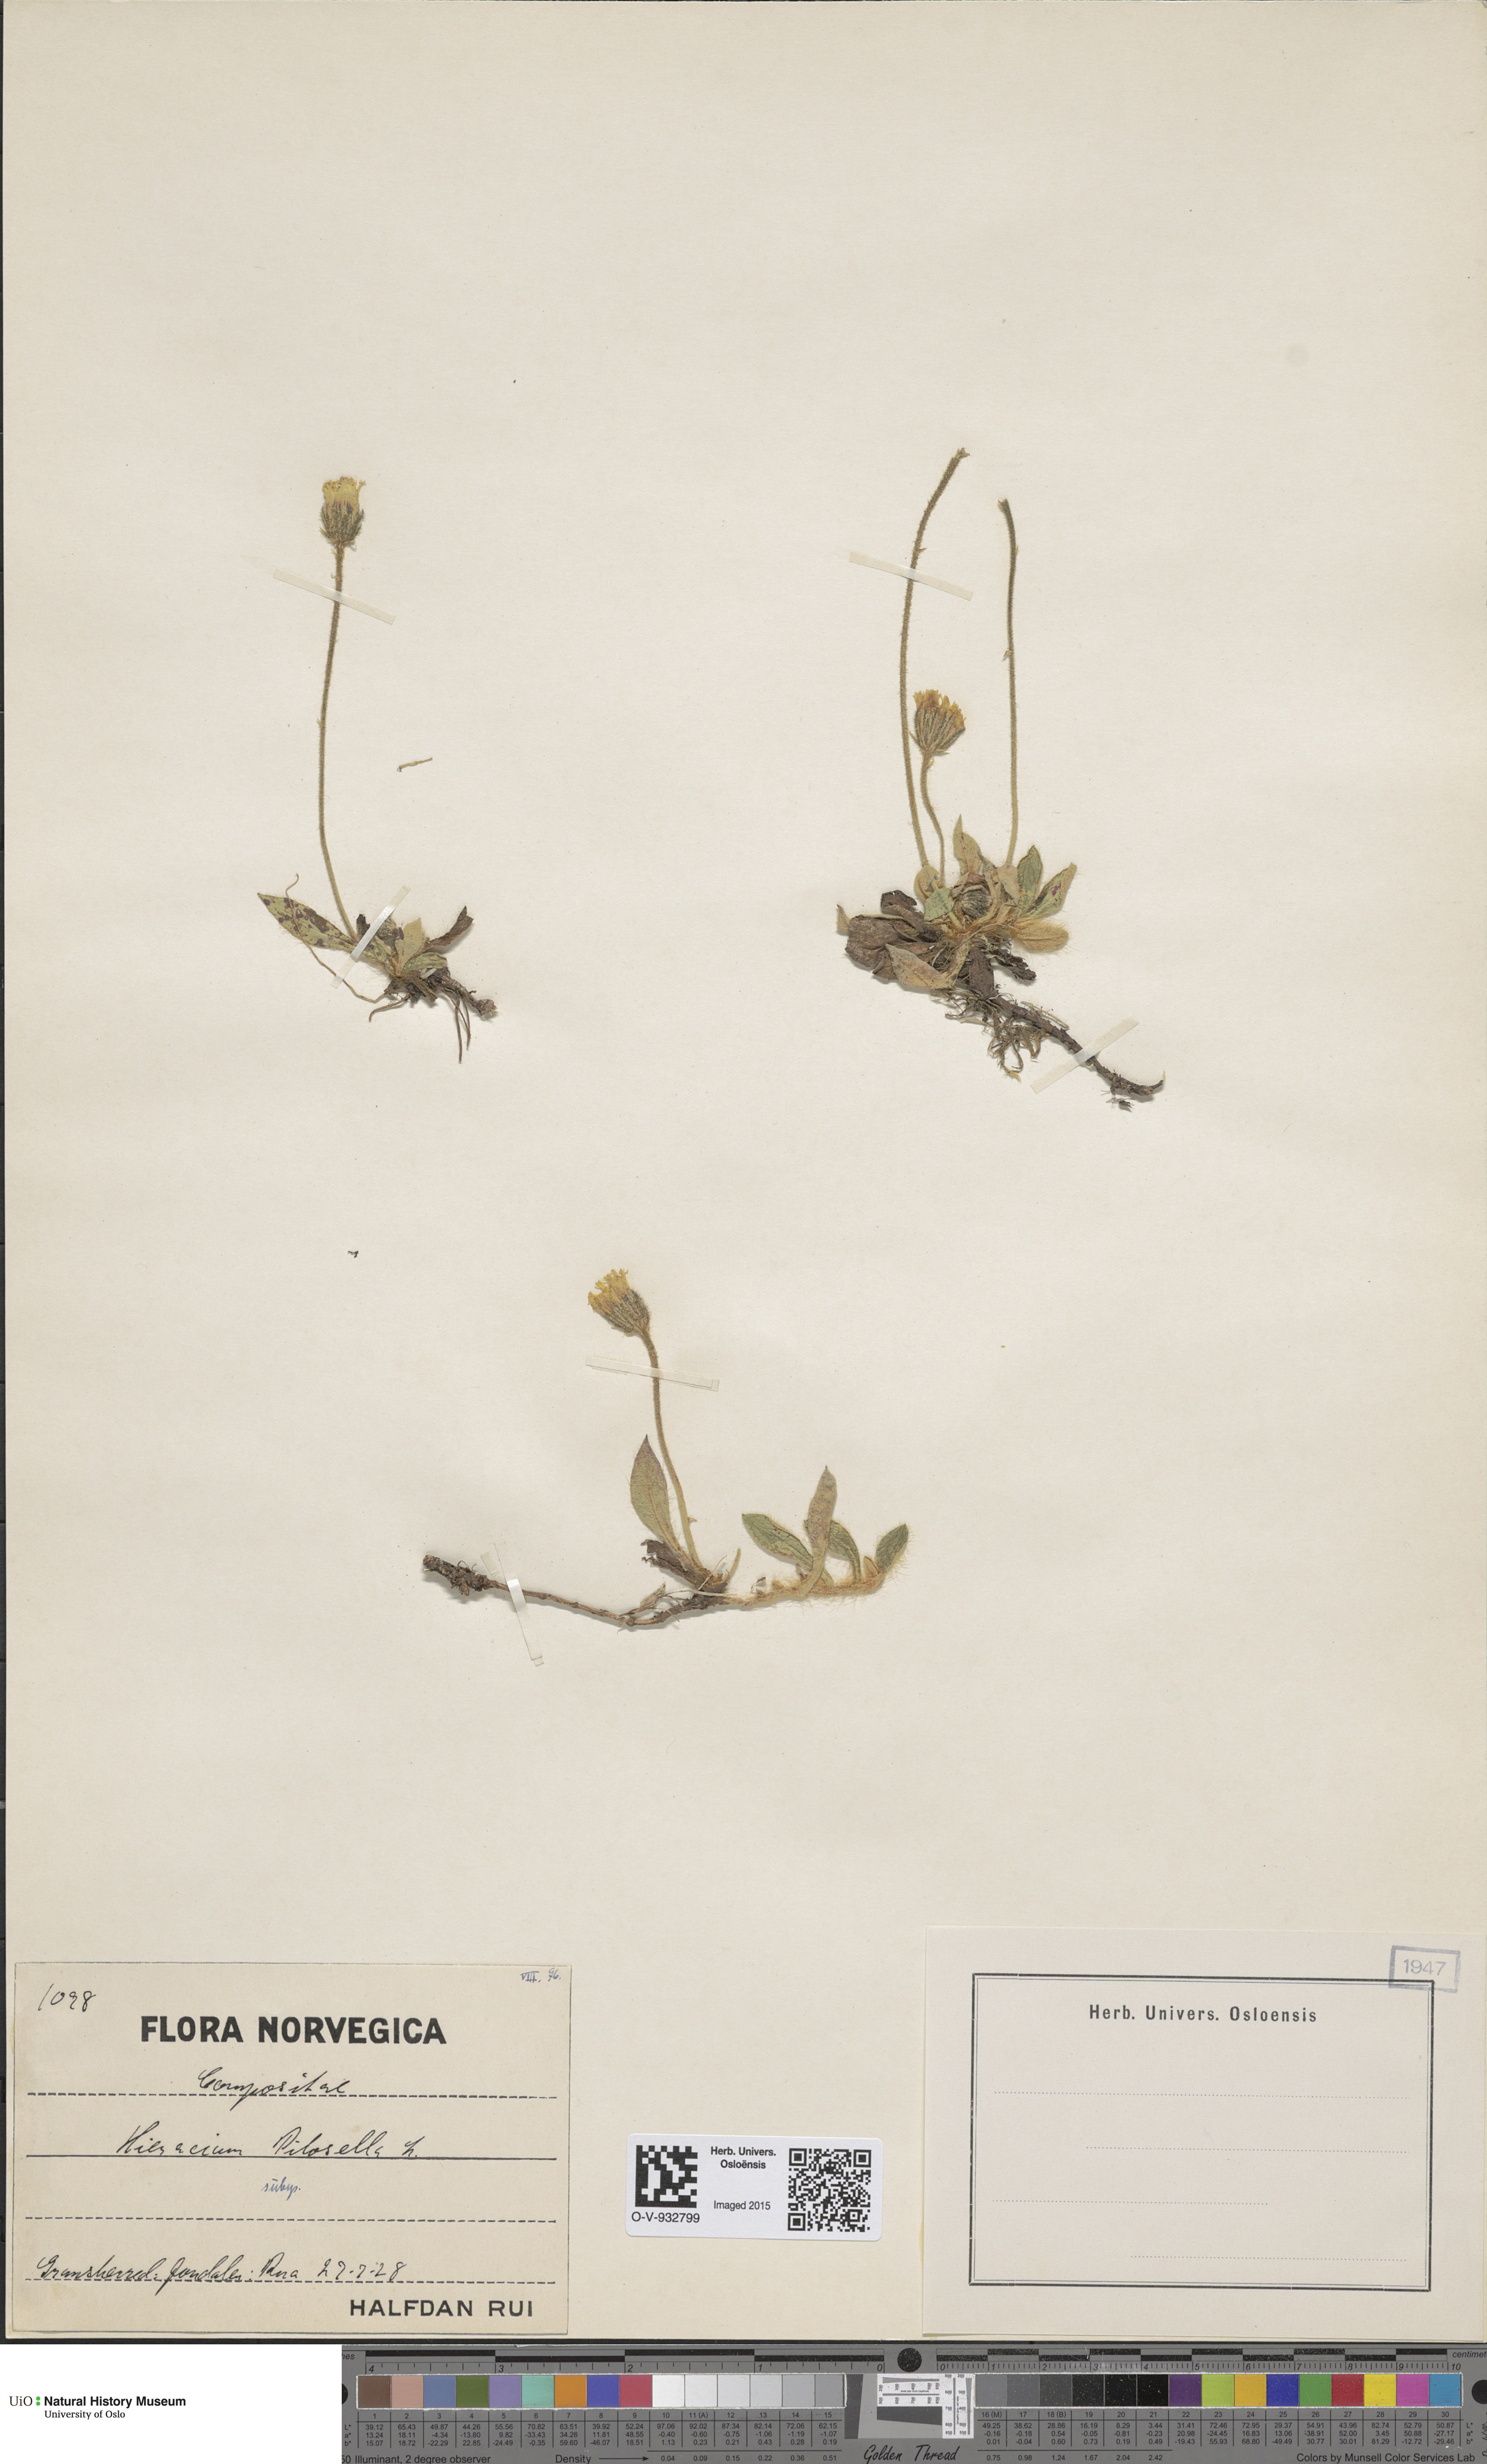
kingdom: Plantae
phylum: Tracheophyta
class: Magnoliopsida
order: Asterales
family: Asteraceae
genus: Pilosella
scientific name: Pilosella officinarum
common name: Mouse-ear hawkweed
